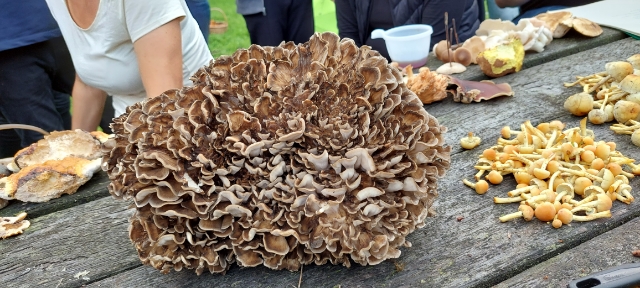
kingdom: Fungi
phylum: Basidiomycota
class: Agaricomycetes
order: Polyporales
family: Grifolaceae
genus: Grifola
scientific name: Grifola frondosa
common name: tueporesvamp
